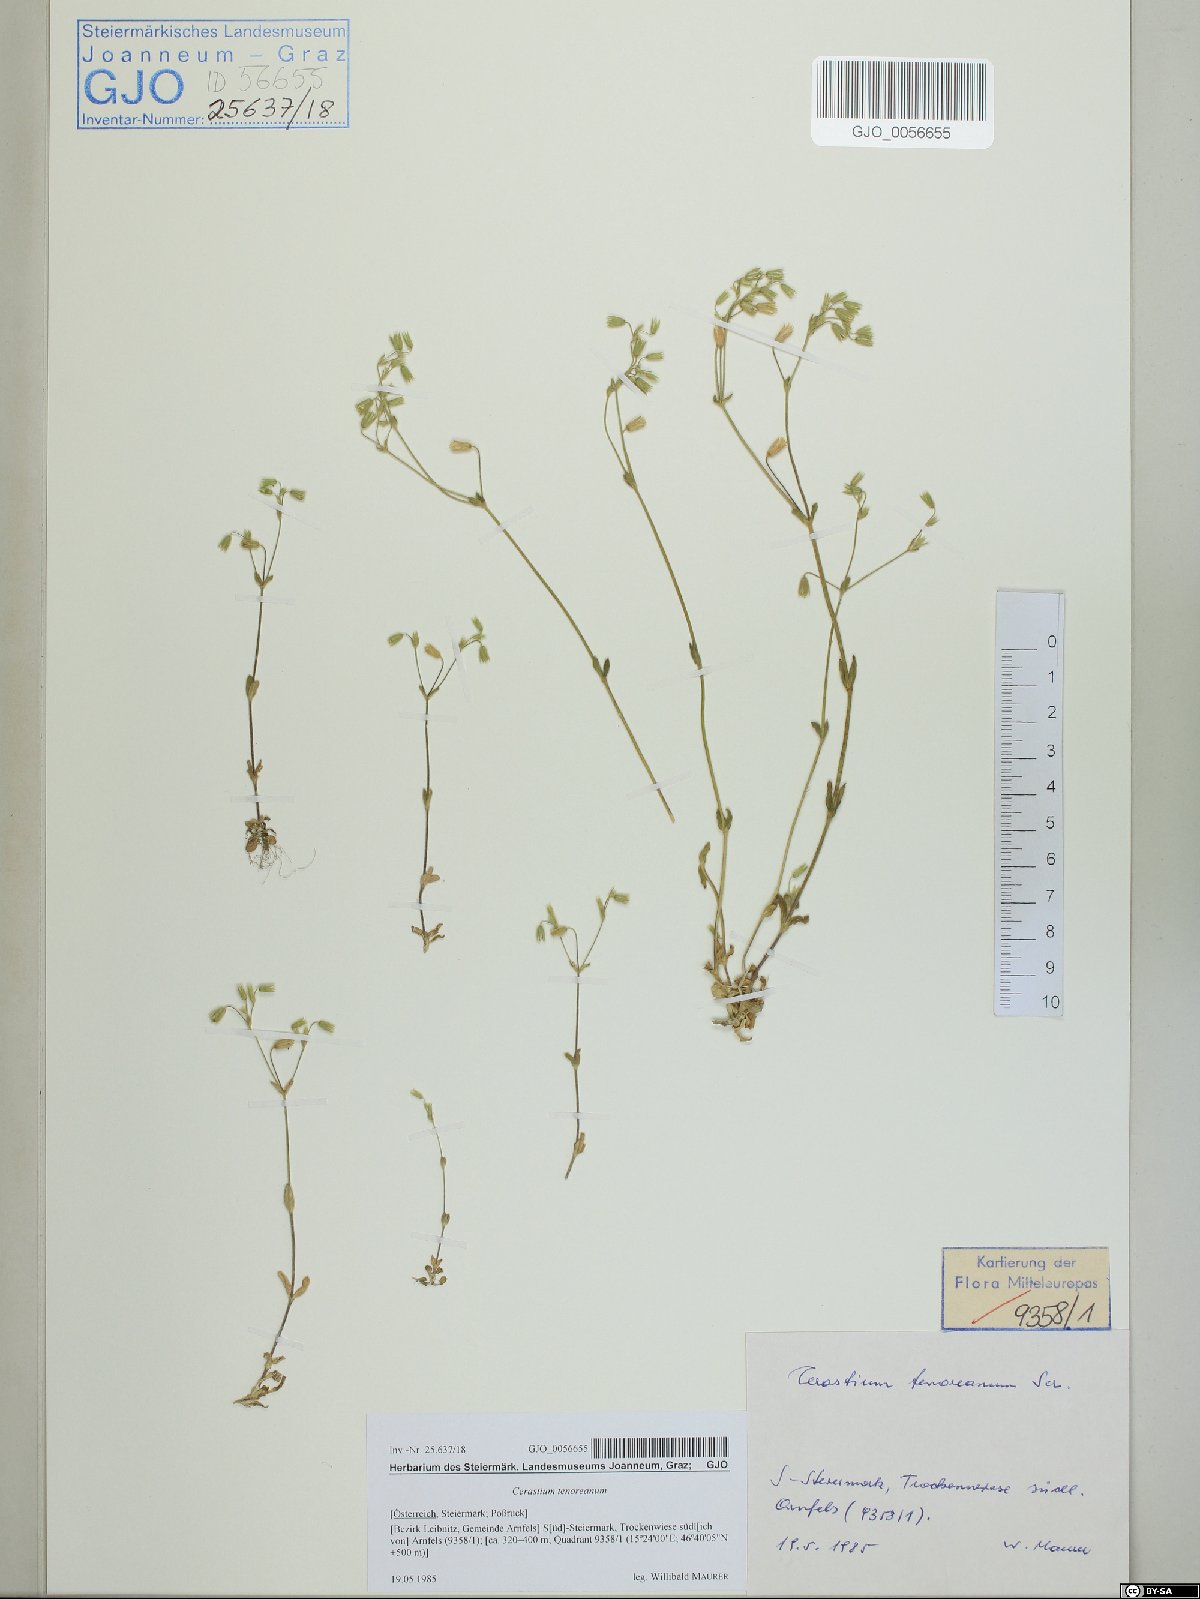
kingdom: Plantae
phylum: Tracheophyta
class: Magnoliopsida
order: Caryophyllales
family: Caryophyllaceae
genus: Cerastium
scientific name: Cerastium tenoreanum
